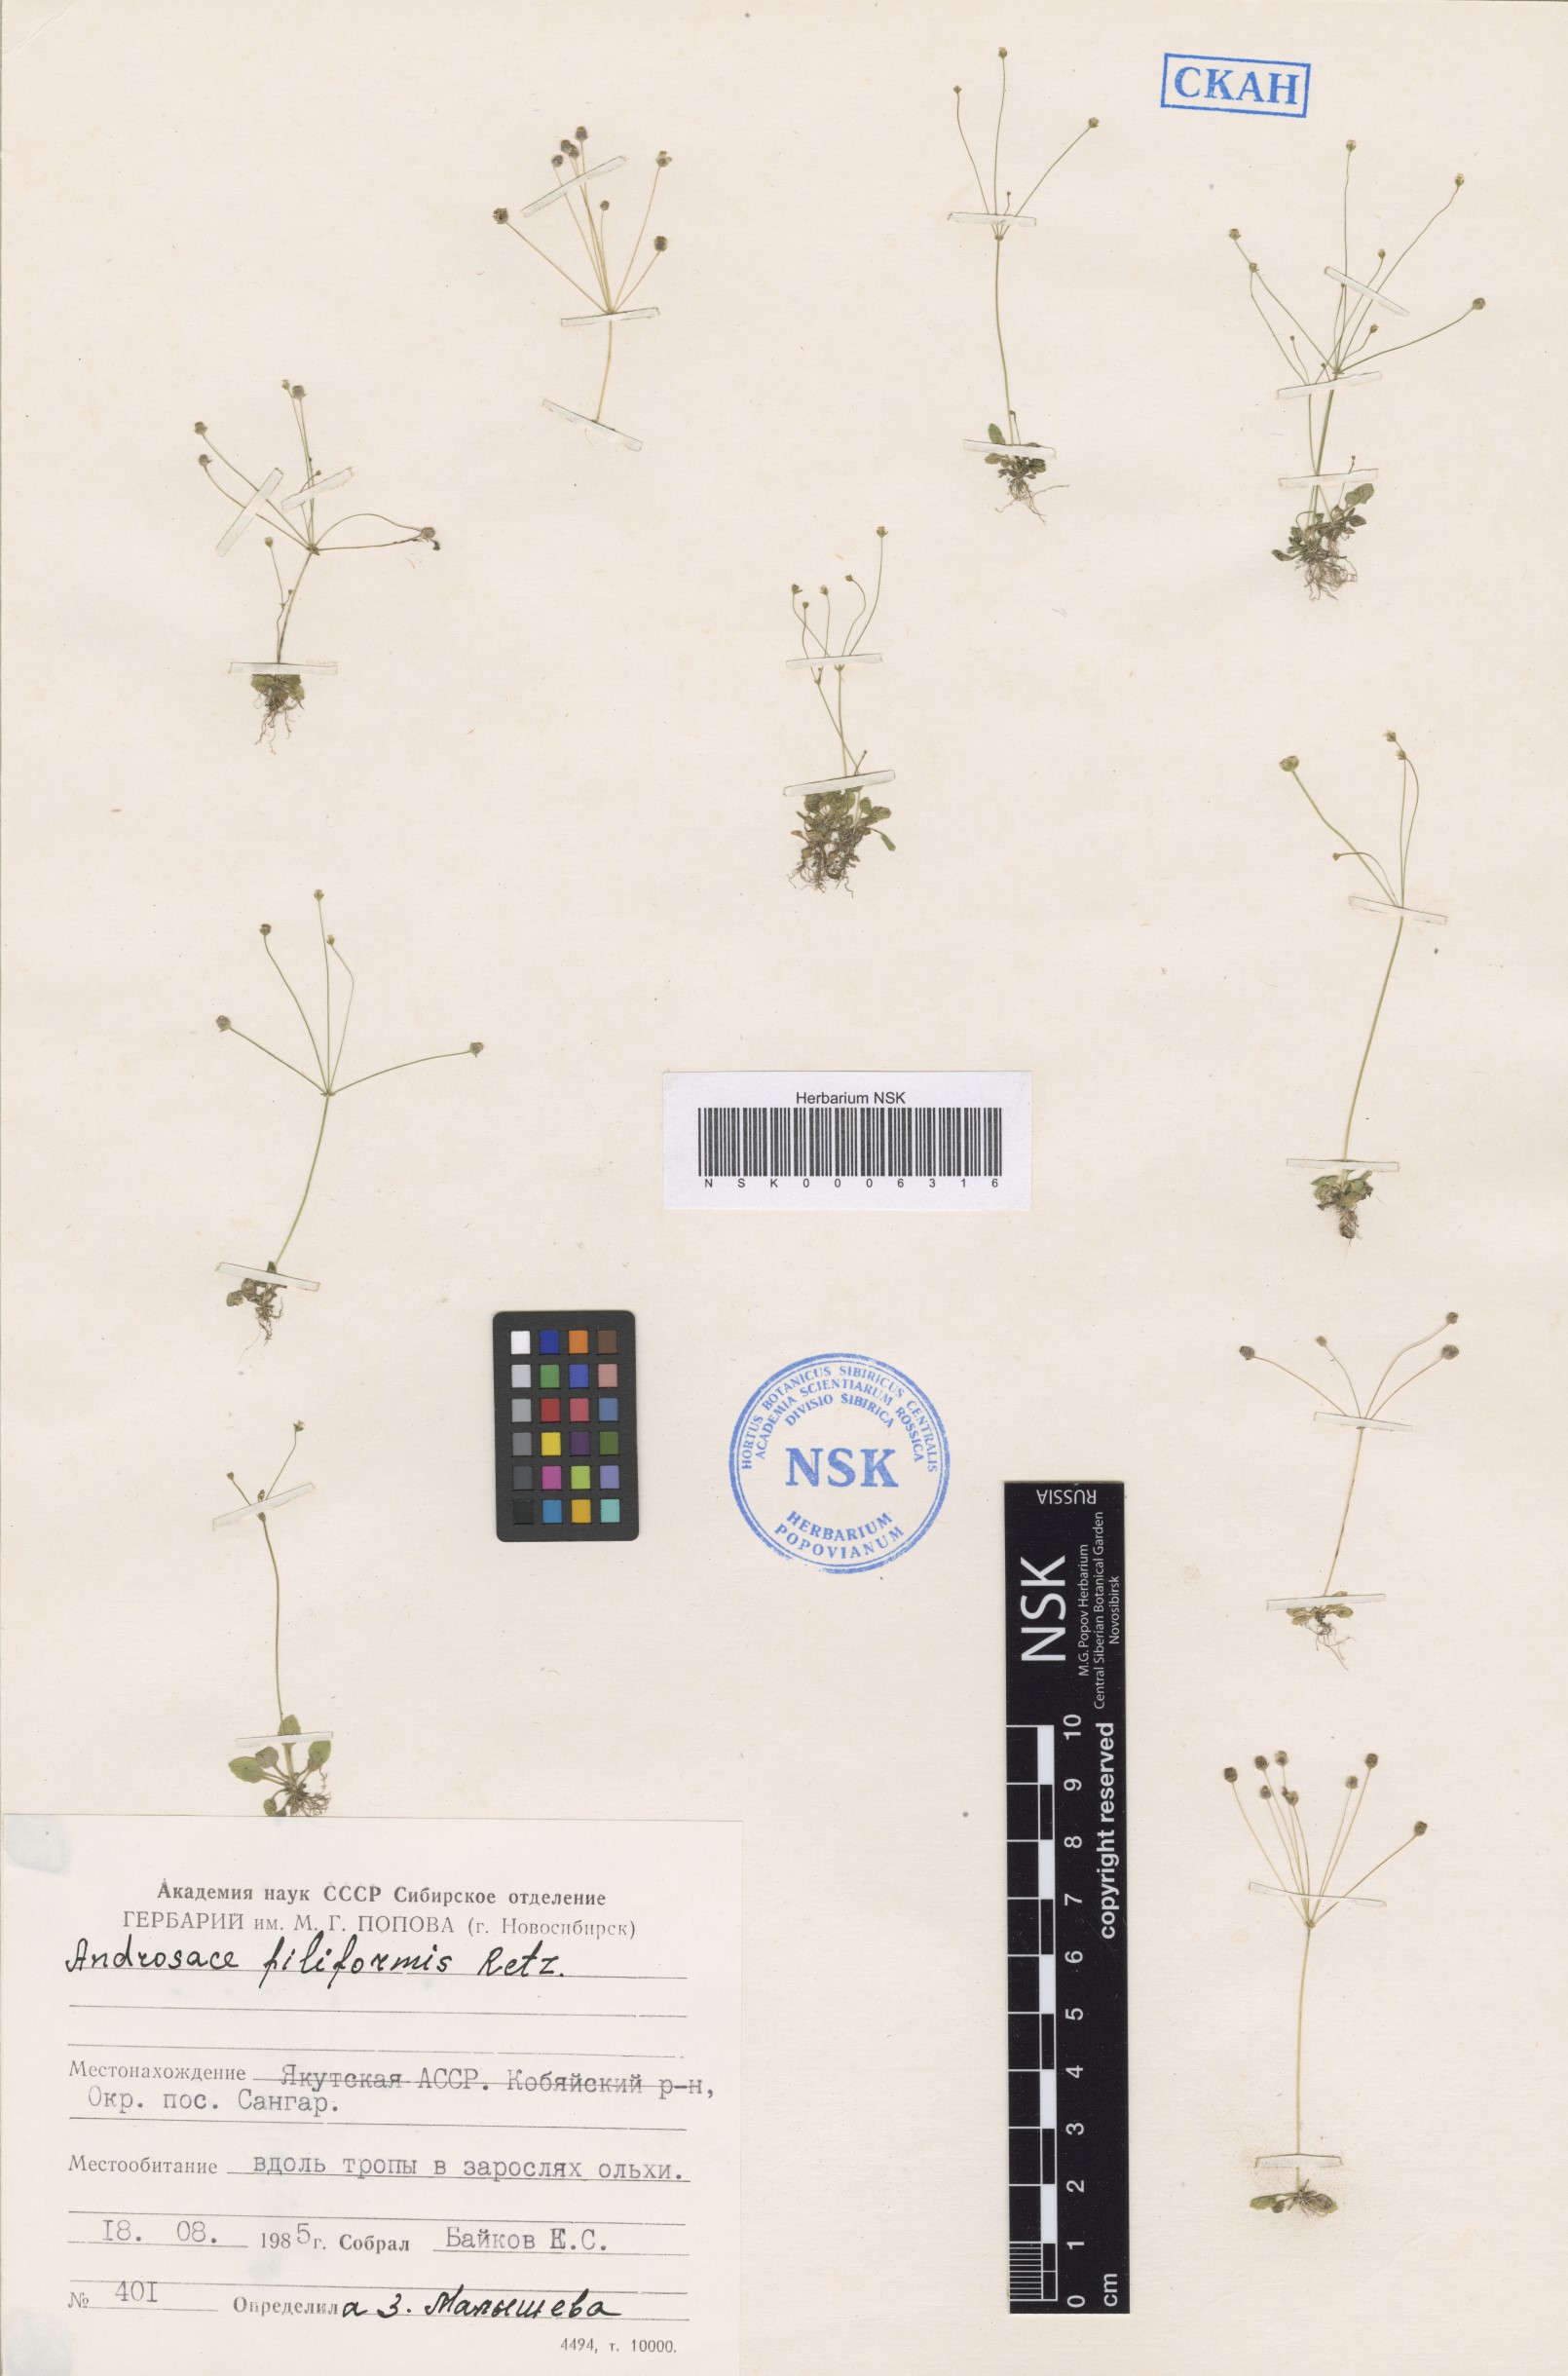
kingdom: Plantae
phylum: Tracheophyta
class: Magnoliopsida
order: Ericales
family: Primulaceae
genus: Androsace
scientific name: Androsace filiformis
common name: Filiform rock jasmine
